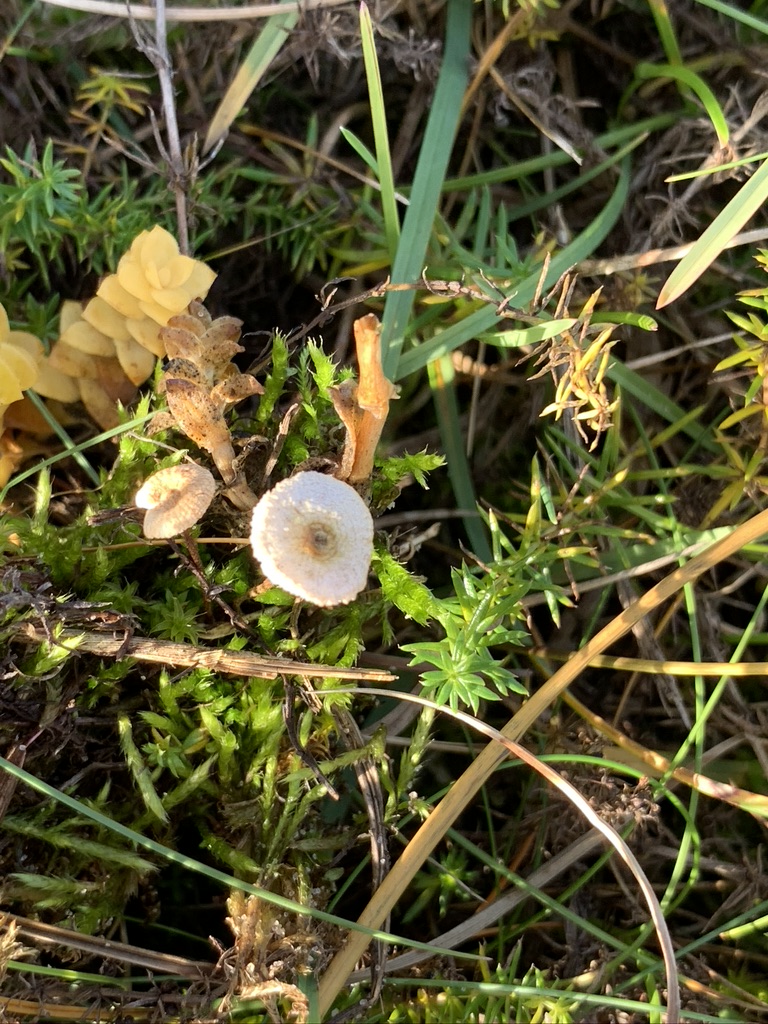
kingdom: Fungi
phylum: Basidiomycota
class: Agaricomycetes
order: Agaricales
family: Marasmiaceae
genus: Crinipellis
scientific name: Crinipellis scabella
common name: børstefod
